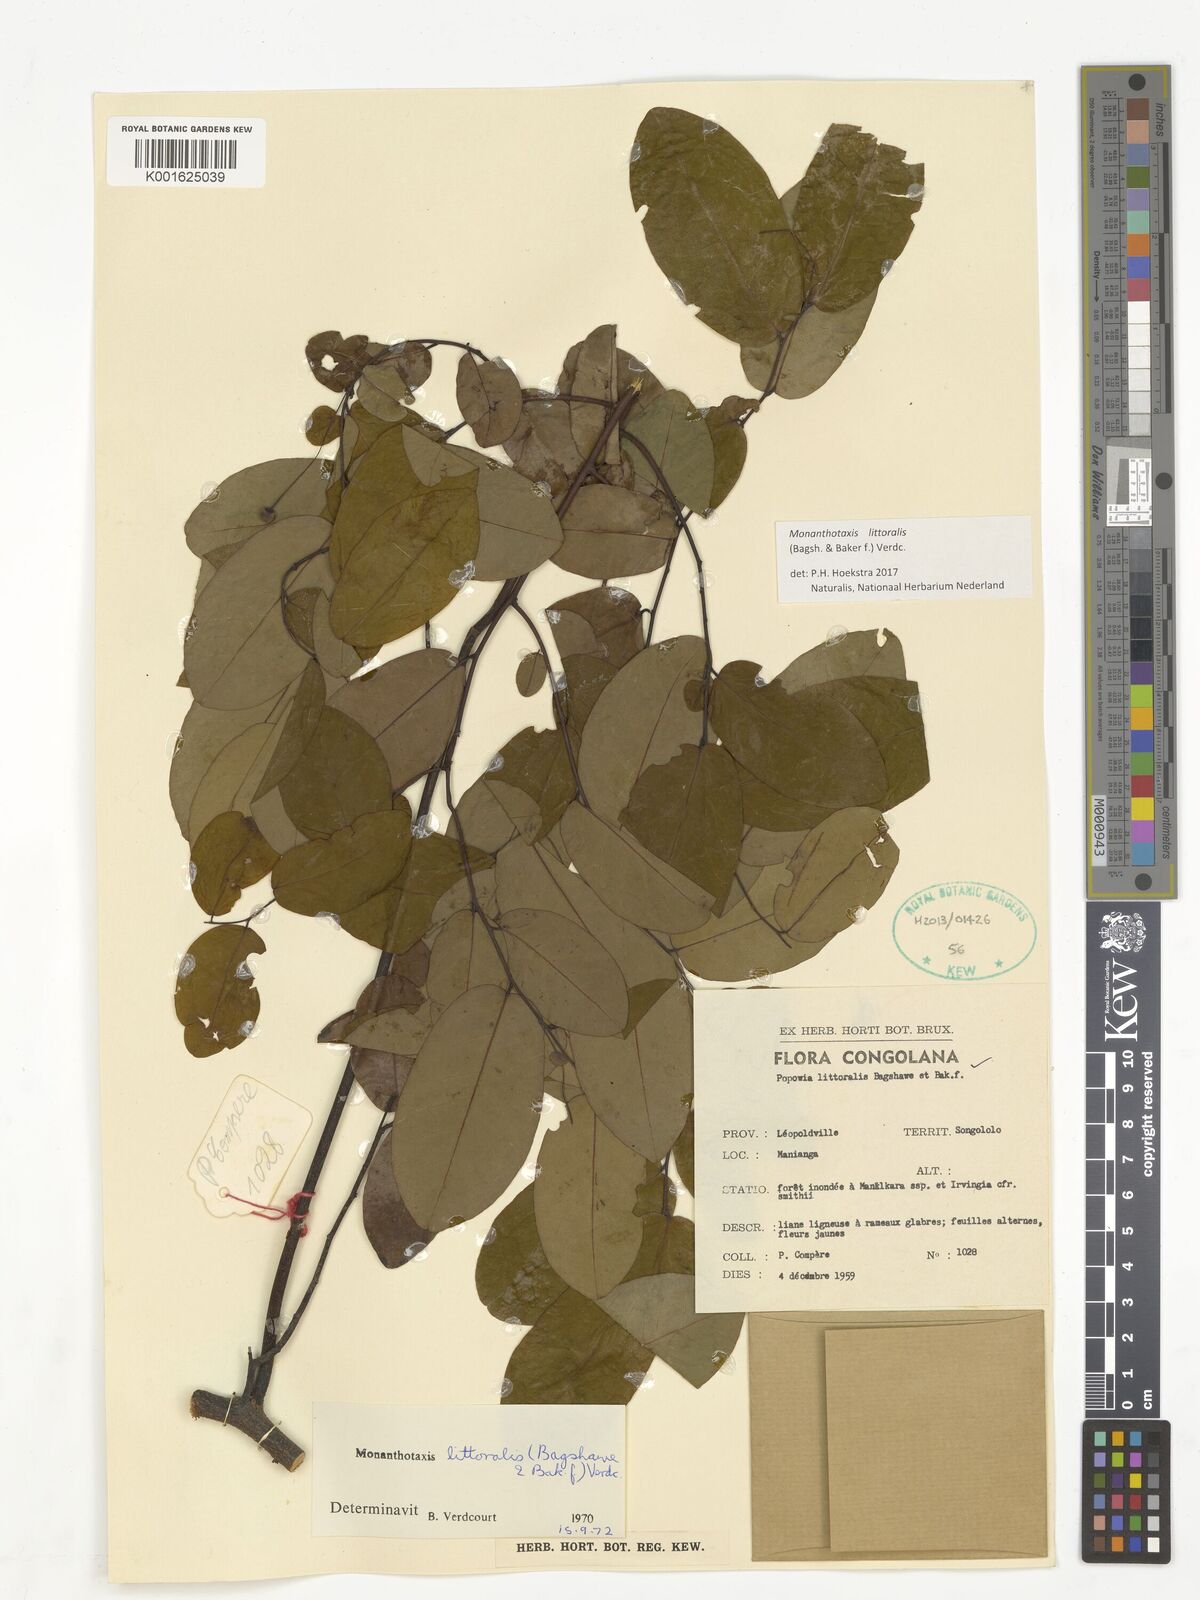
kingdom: Plantae
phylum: Tracheophyta
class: Magnoliopsida
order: Magnoliales
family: Annonaceae
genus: Monanthotaxis
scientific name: Monanthotaxis littoralis
